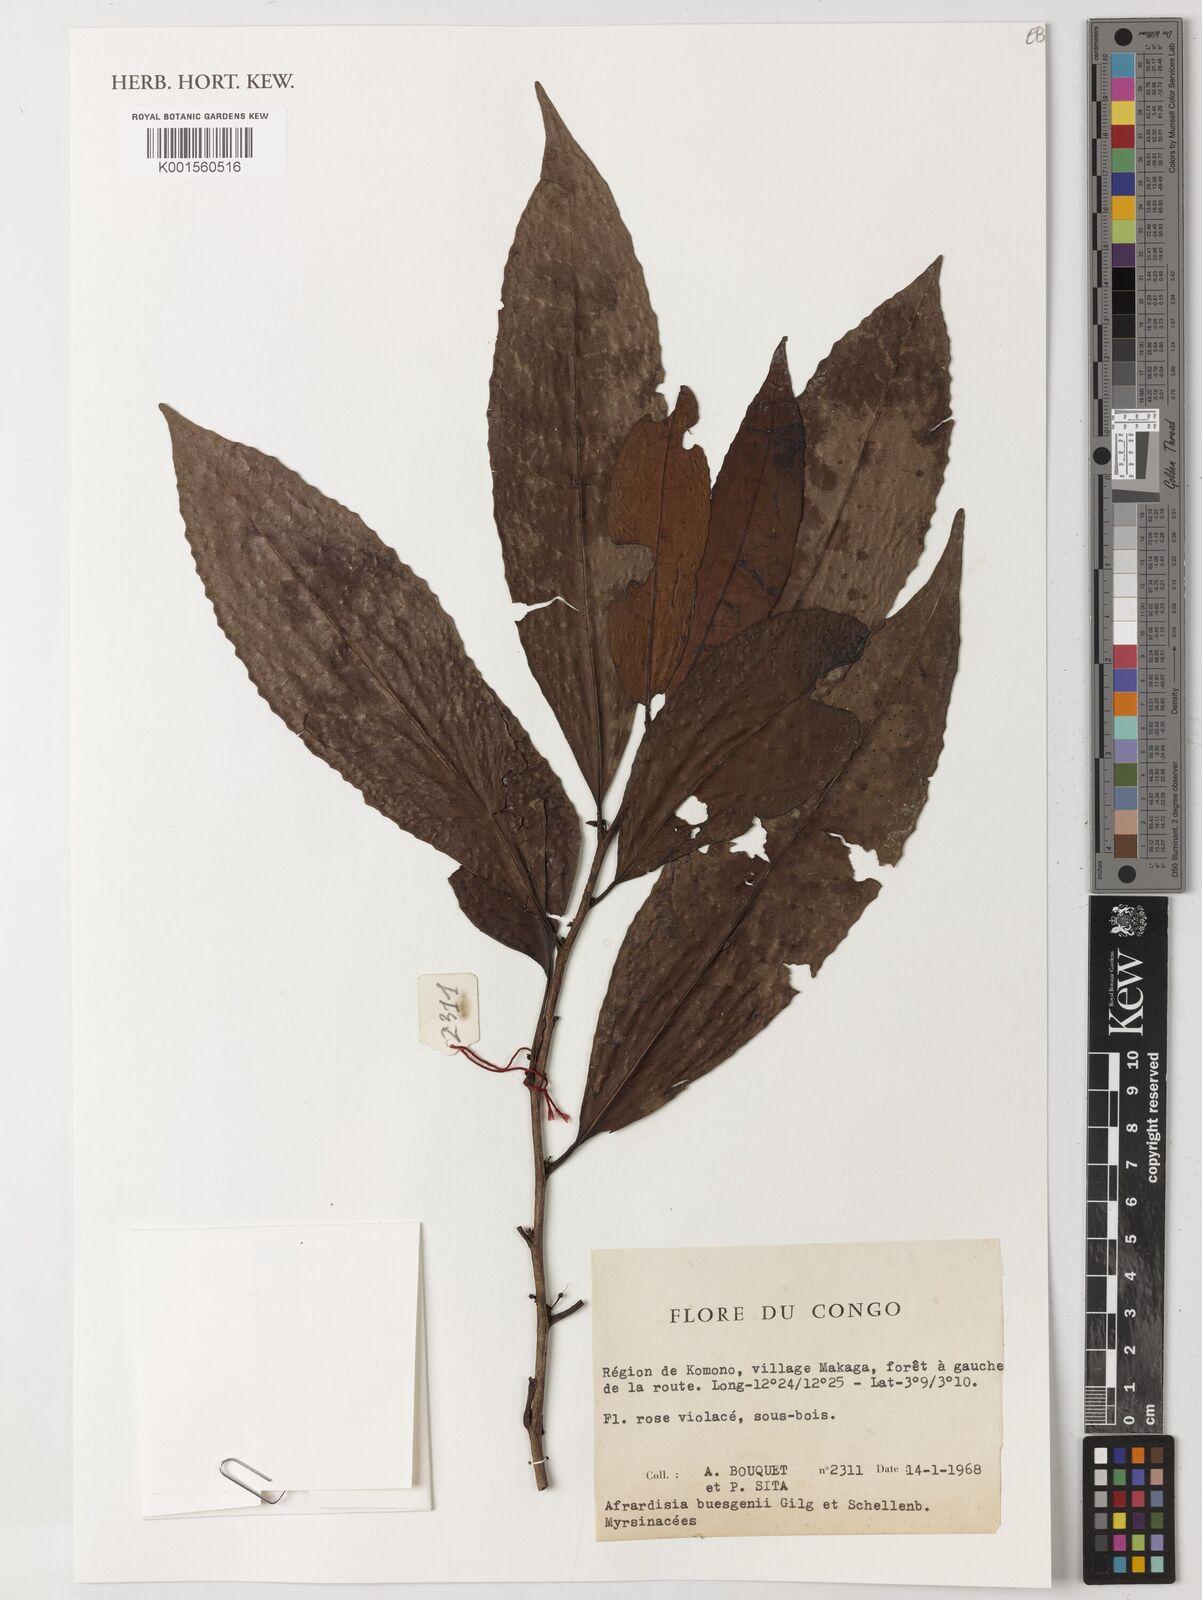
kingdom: Plantae
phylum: Tracheophyta
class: Magnoliopsida
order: Ericales
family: Primulaceae
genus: Ardisia
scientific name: Ardisia buesgenii
